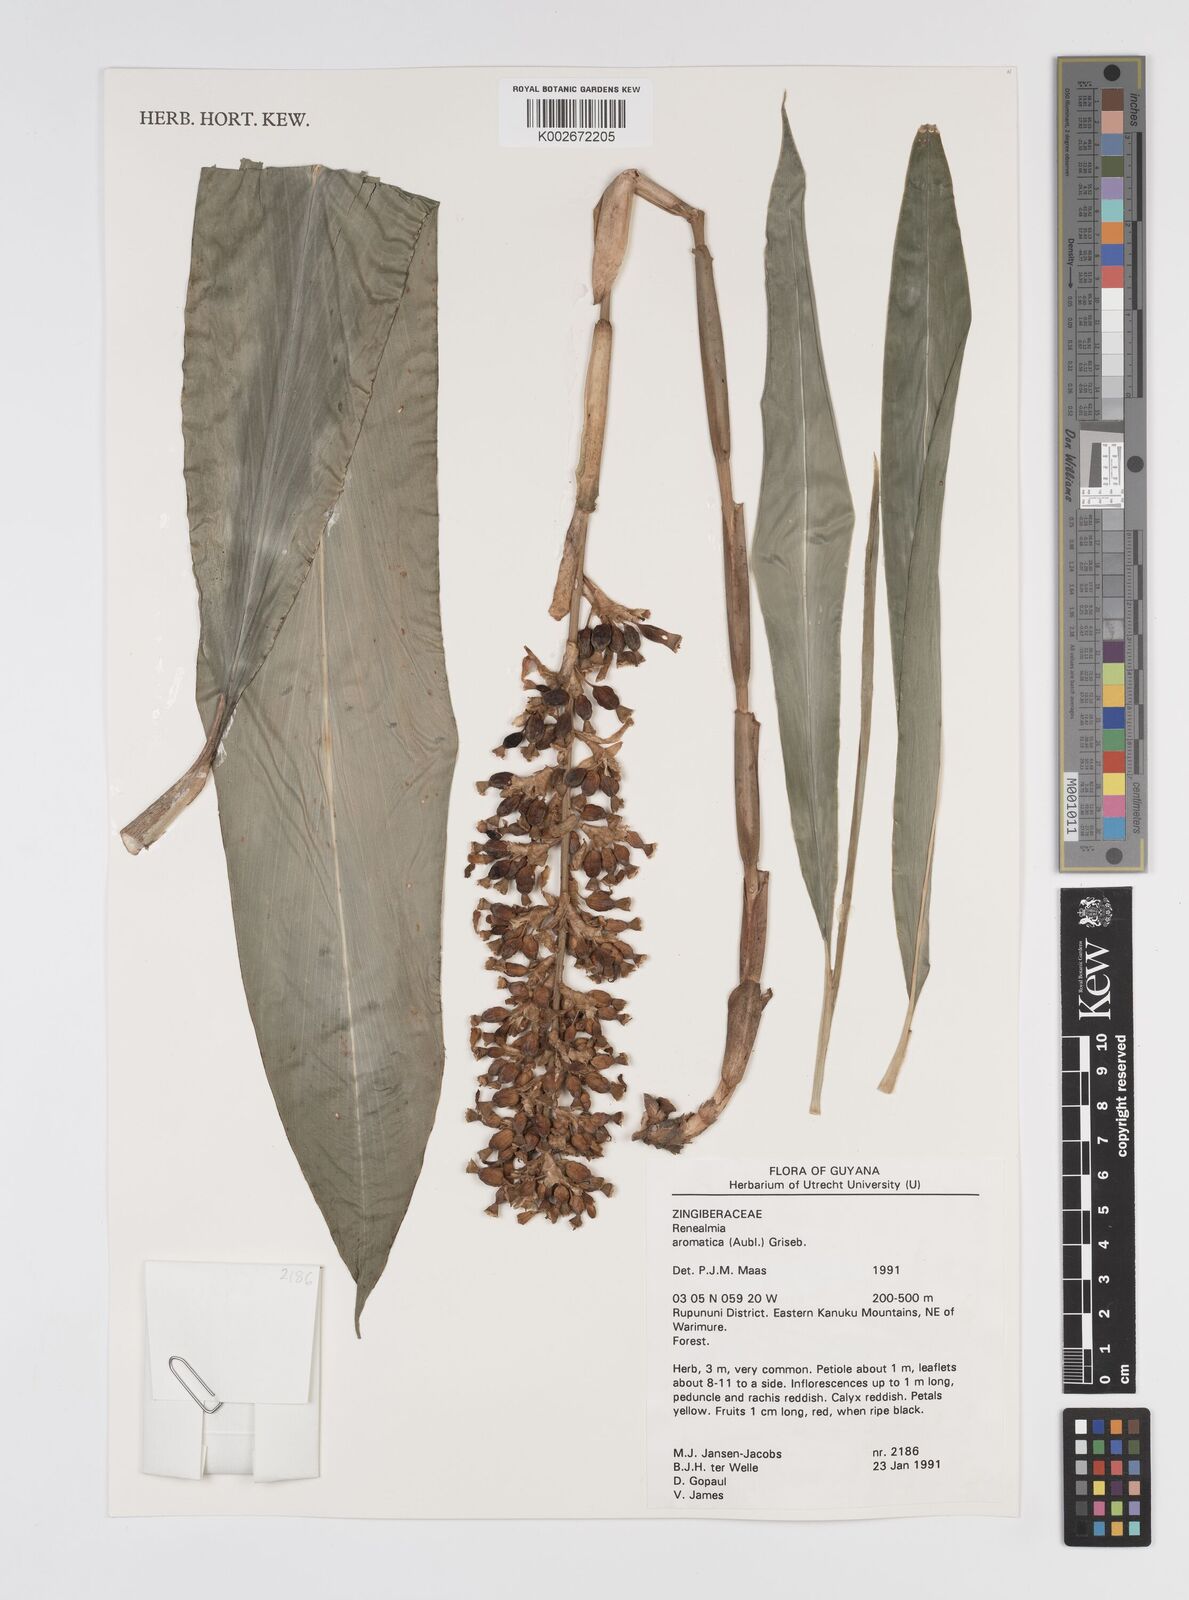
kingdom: Plantae
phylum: Tracheophyta
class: Liliopsida
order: Zingiberales
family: Zingiberaceae
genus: Renealmia
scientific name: Renealmia aromatica
